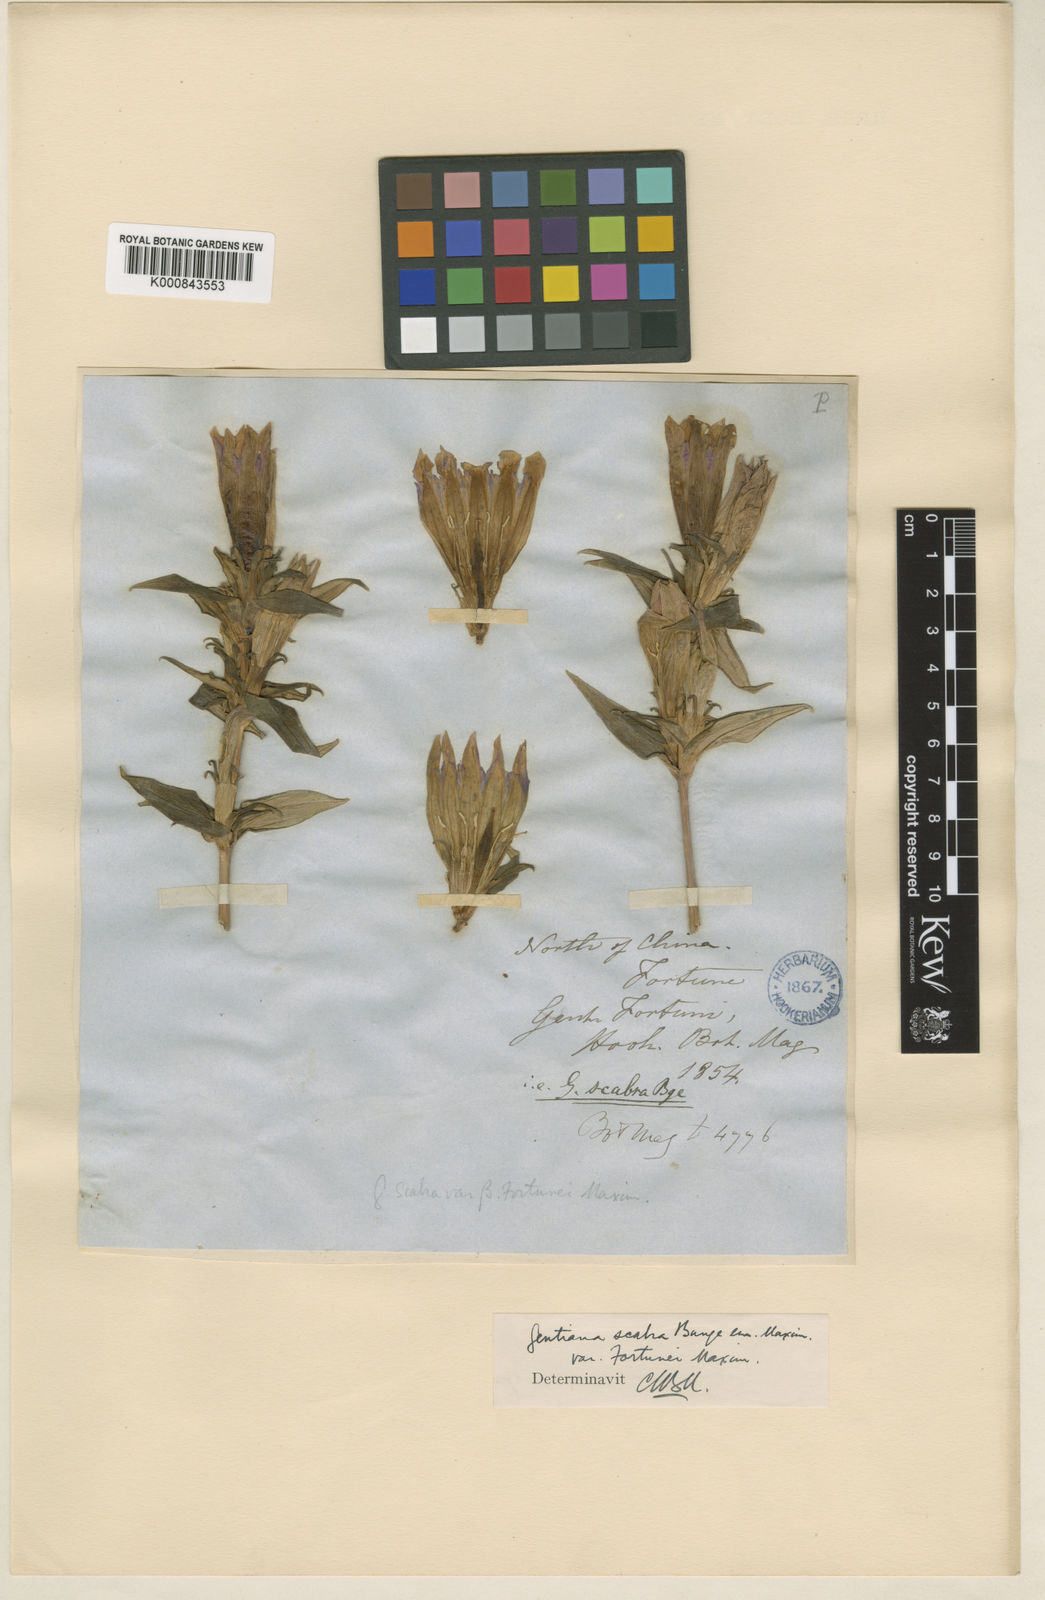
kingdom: Plantae
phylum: Tracheophyta
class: Magnoliopsida
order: Gentianales
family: Gentianaceae
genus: Gentiana
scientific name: Gentiana scabra
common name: Scabrous gentian
